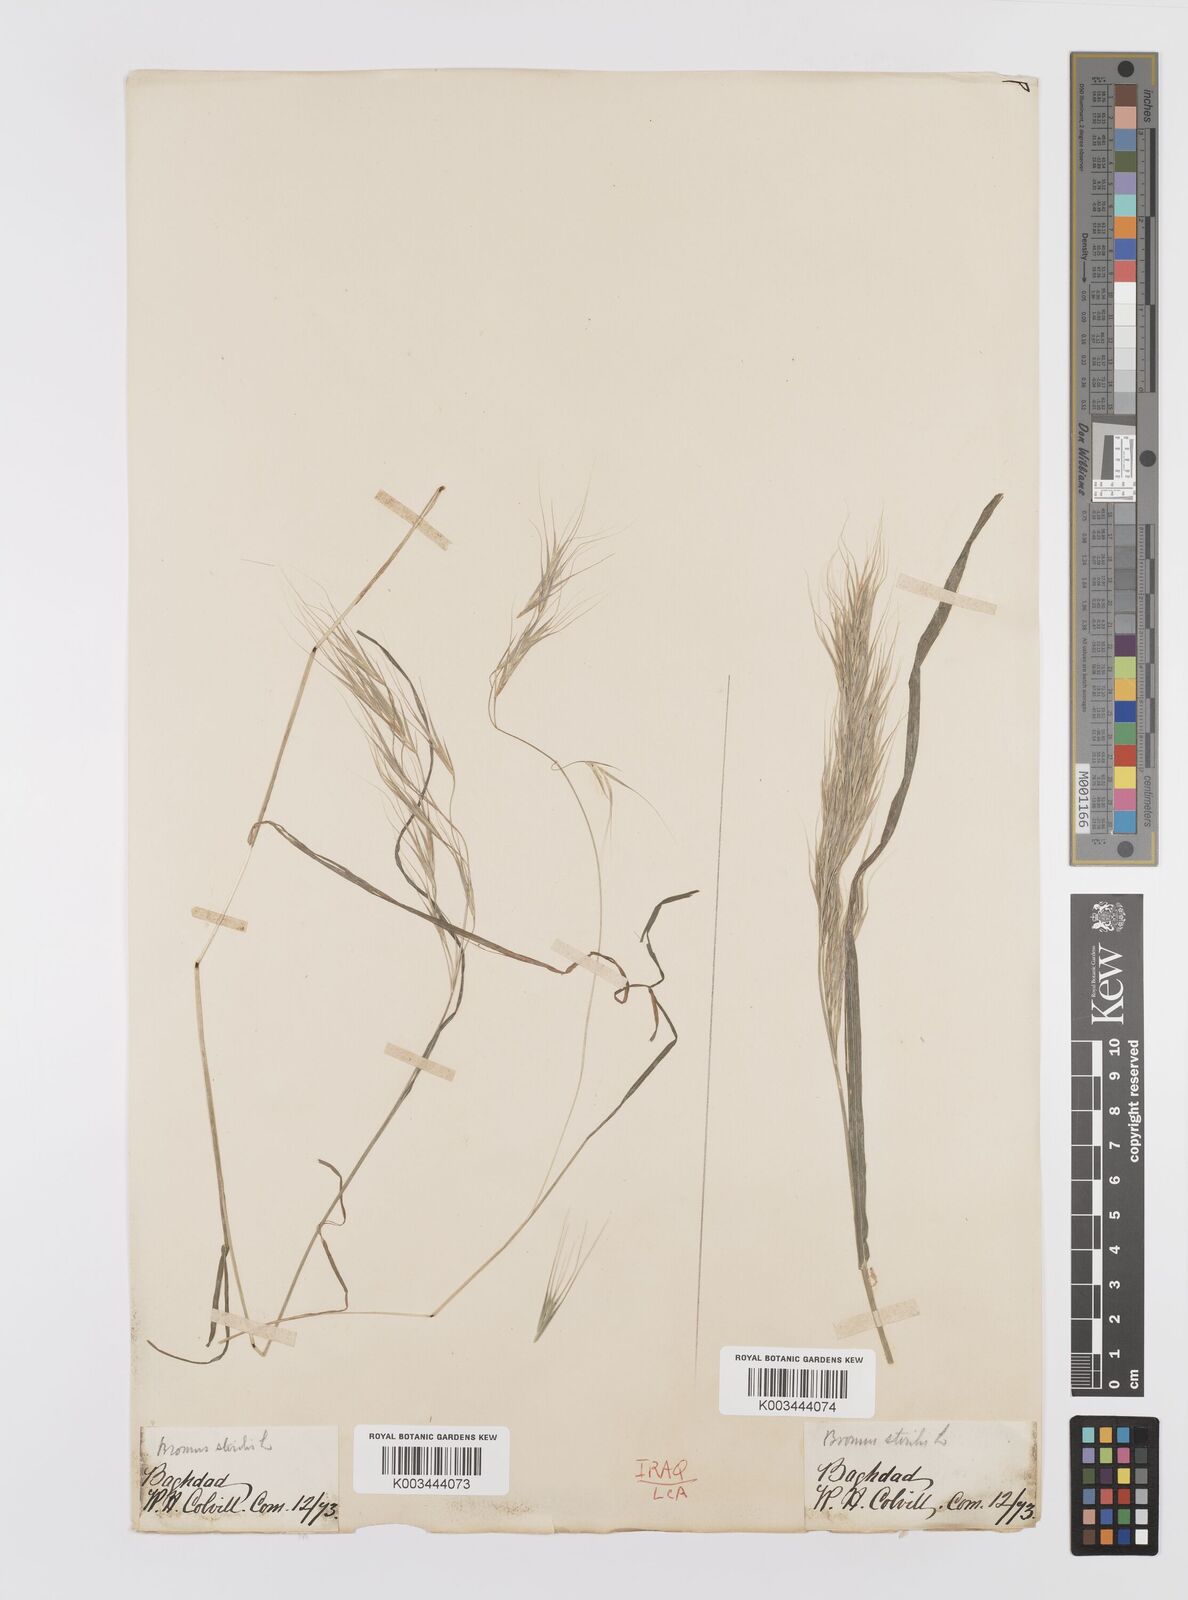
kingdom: Plantae
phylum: Tracheophyta
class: Liliopsida
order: Poales
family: Poaceae
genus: Bromus
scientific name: Bromus sterilis
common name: Poverty brome
